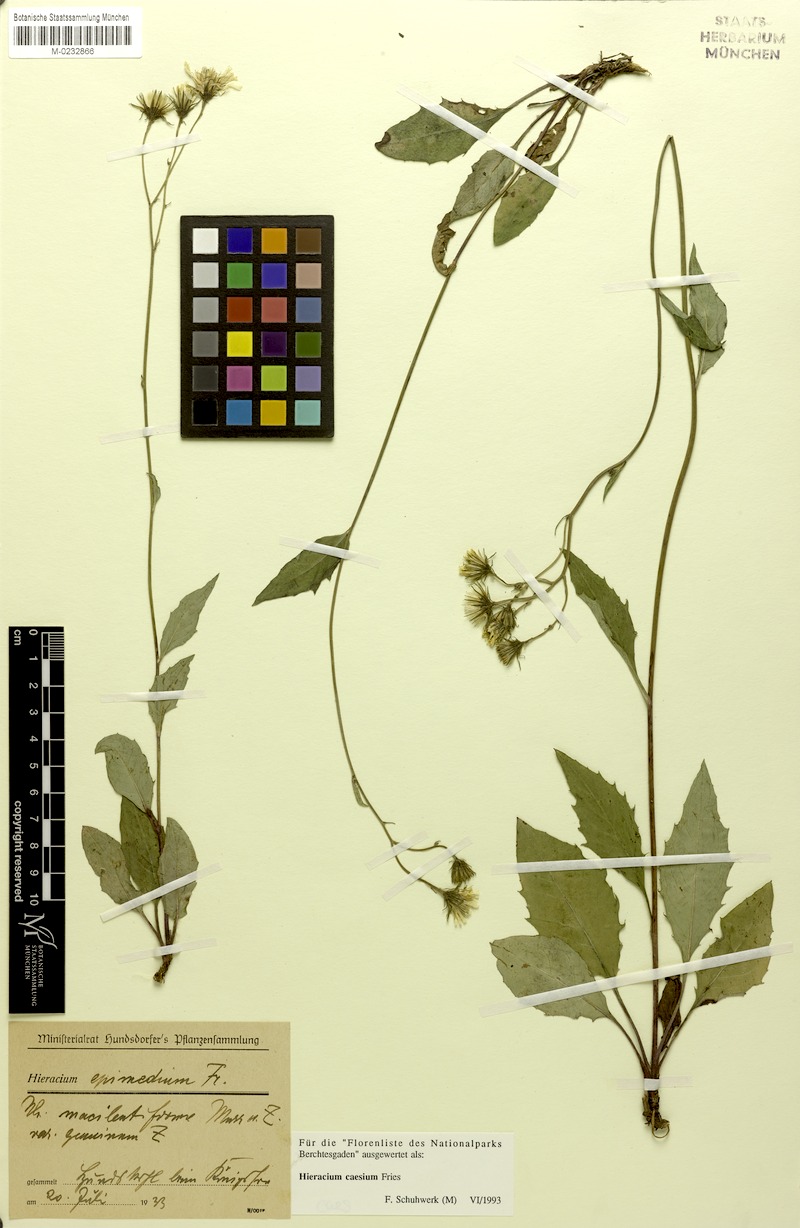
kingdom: Plantae
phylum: Tracheophyta
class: Magnoliopsida
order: Asterales
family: Asteraceae
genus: Hieracium
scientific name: Hieracium caesium
